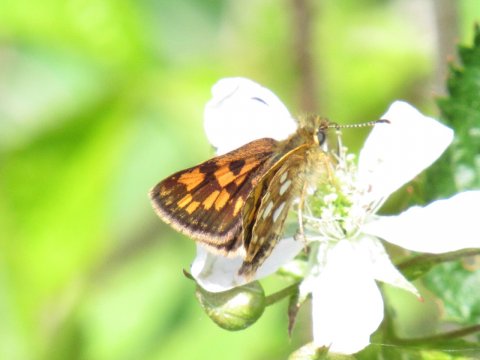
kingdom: Animalia
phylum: Arthropoda
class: Insecta
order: Lepidoptera
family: Hesperiidae
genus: Carterocephalus
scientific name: Carterocephalus palaemon
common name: Chequered Skipper
